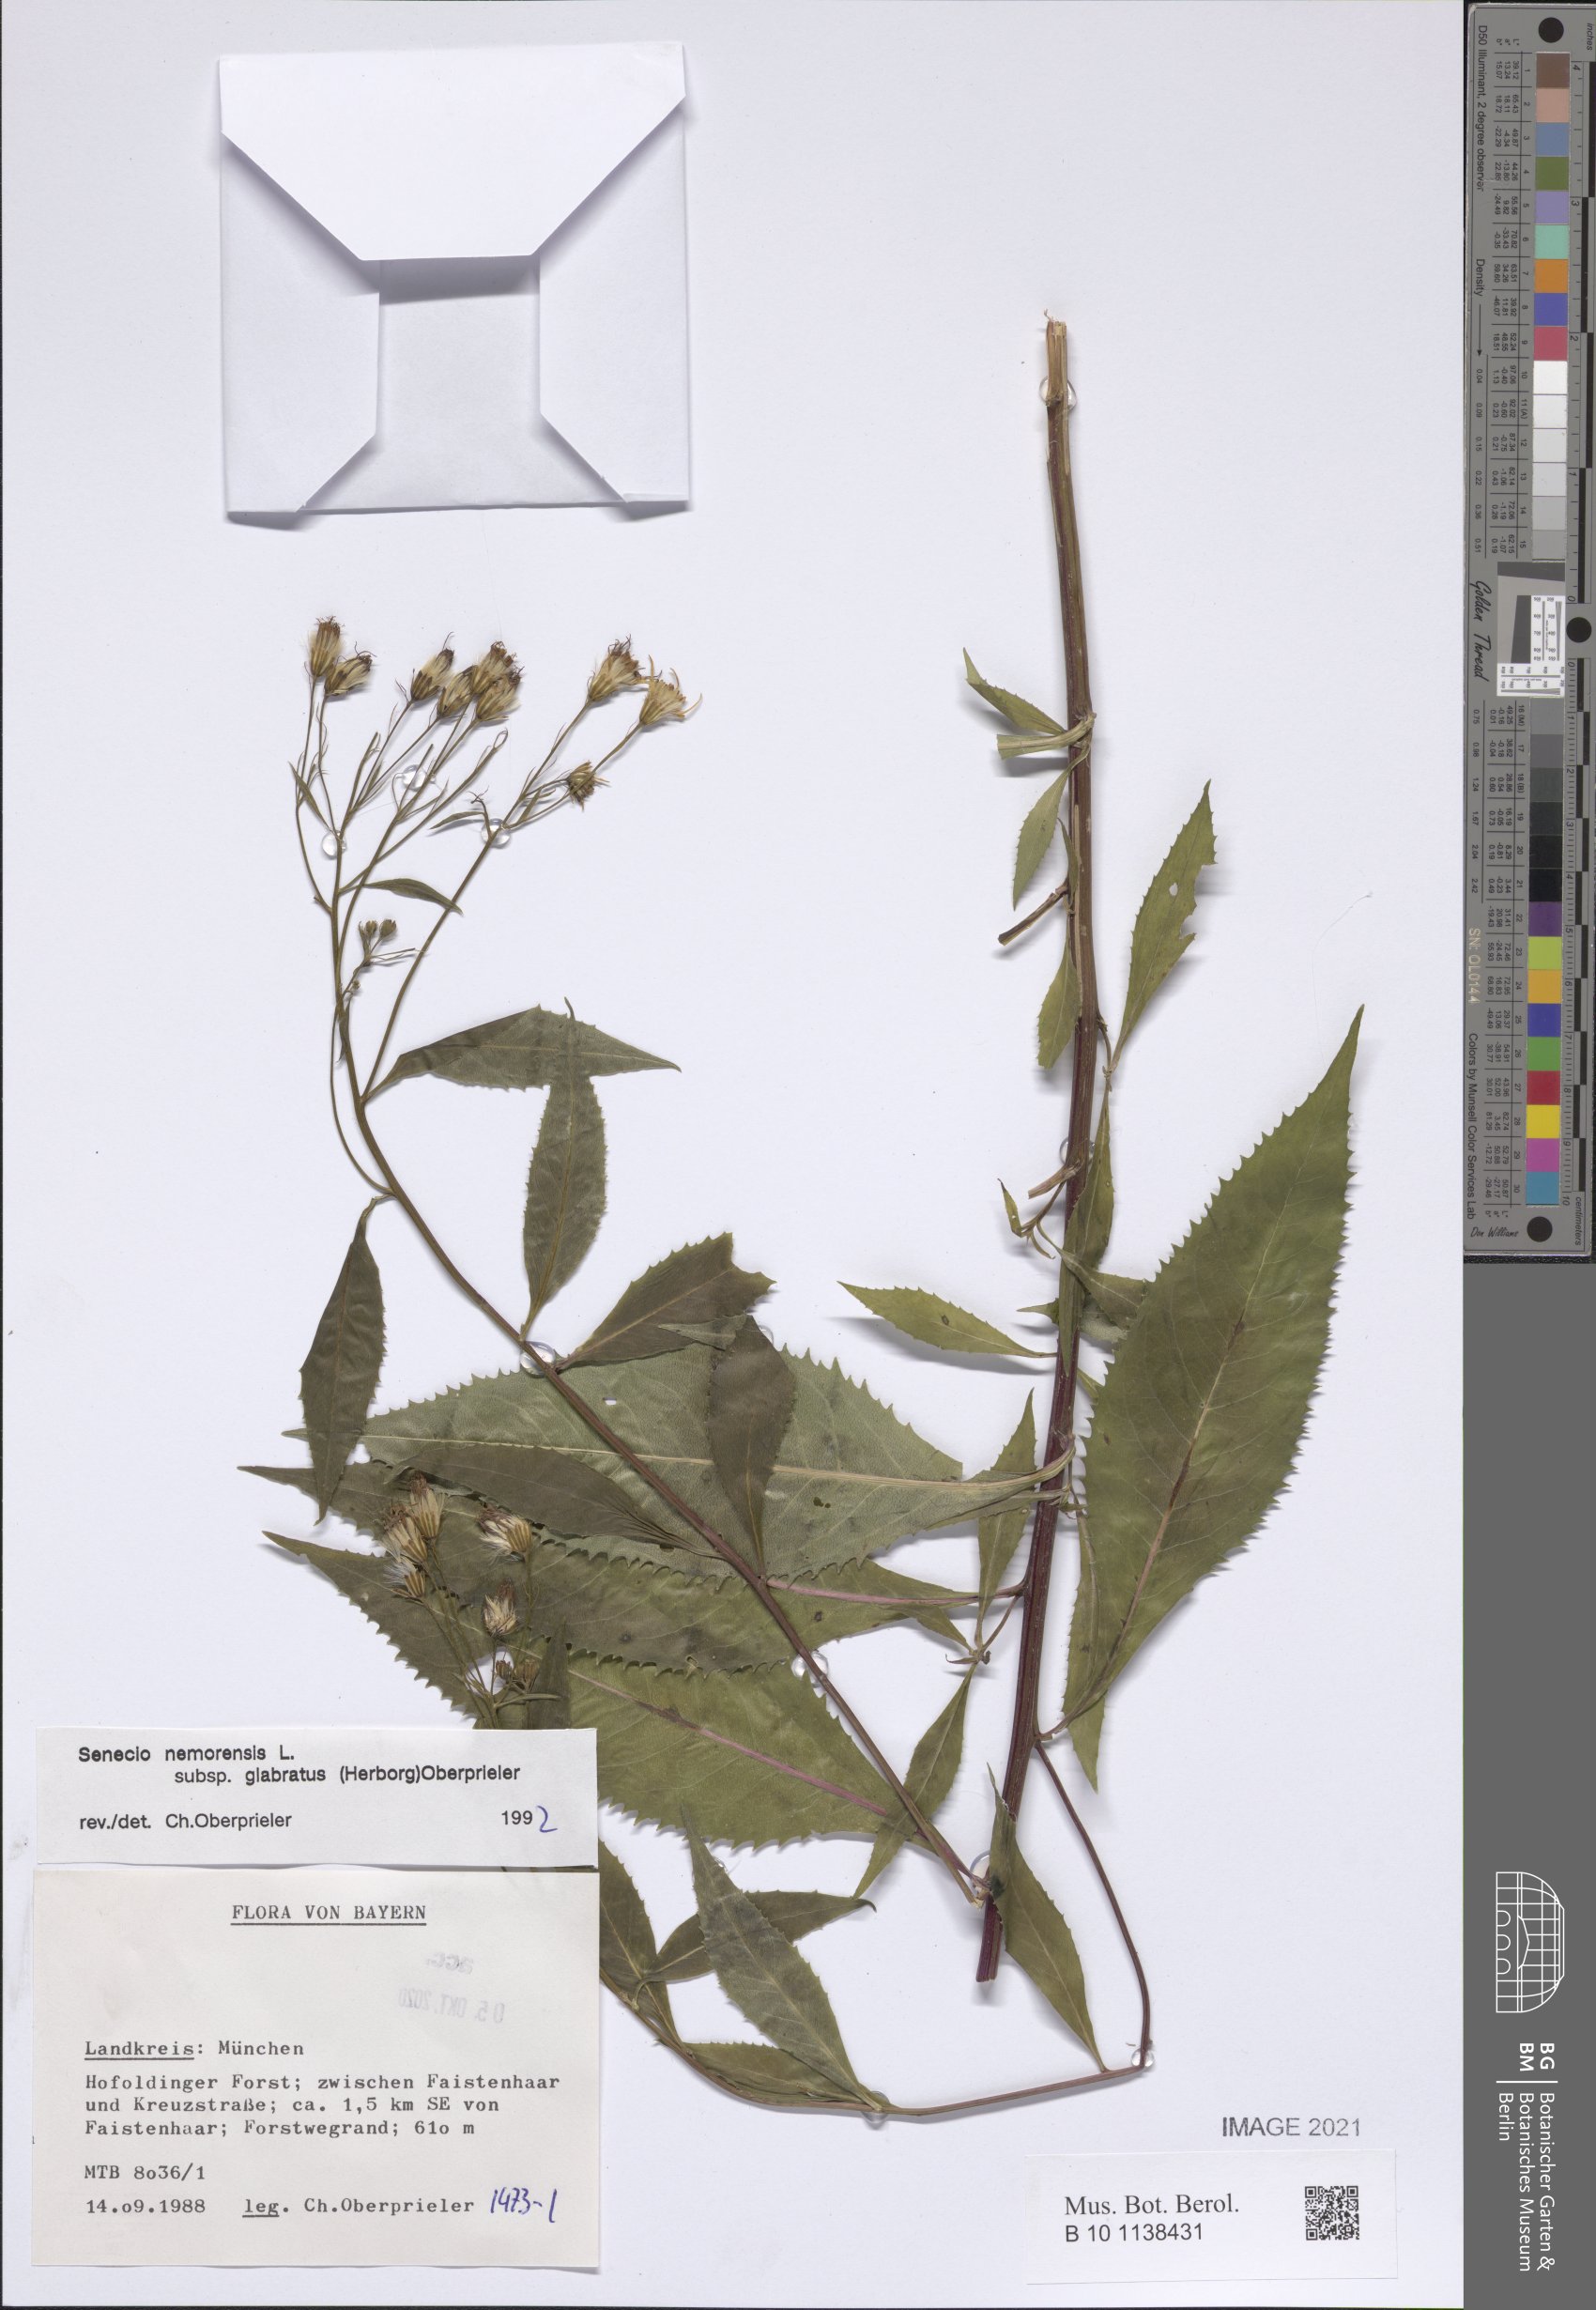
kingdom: Plantae
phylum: Tracheophyta
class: Magnoliopsida
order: Asterales
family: Asteraceae
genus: Senecio
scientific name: Senecio germanicus
